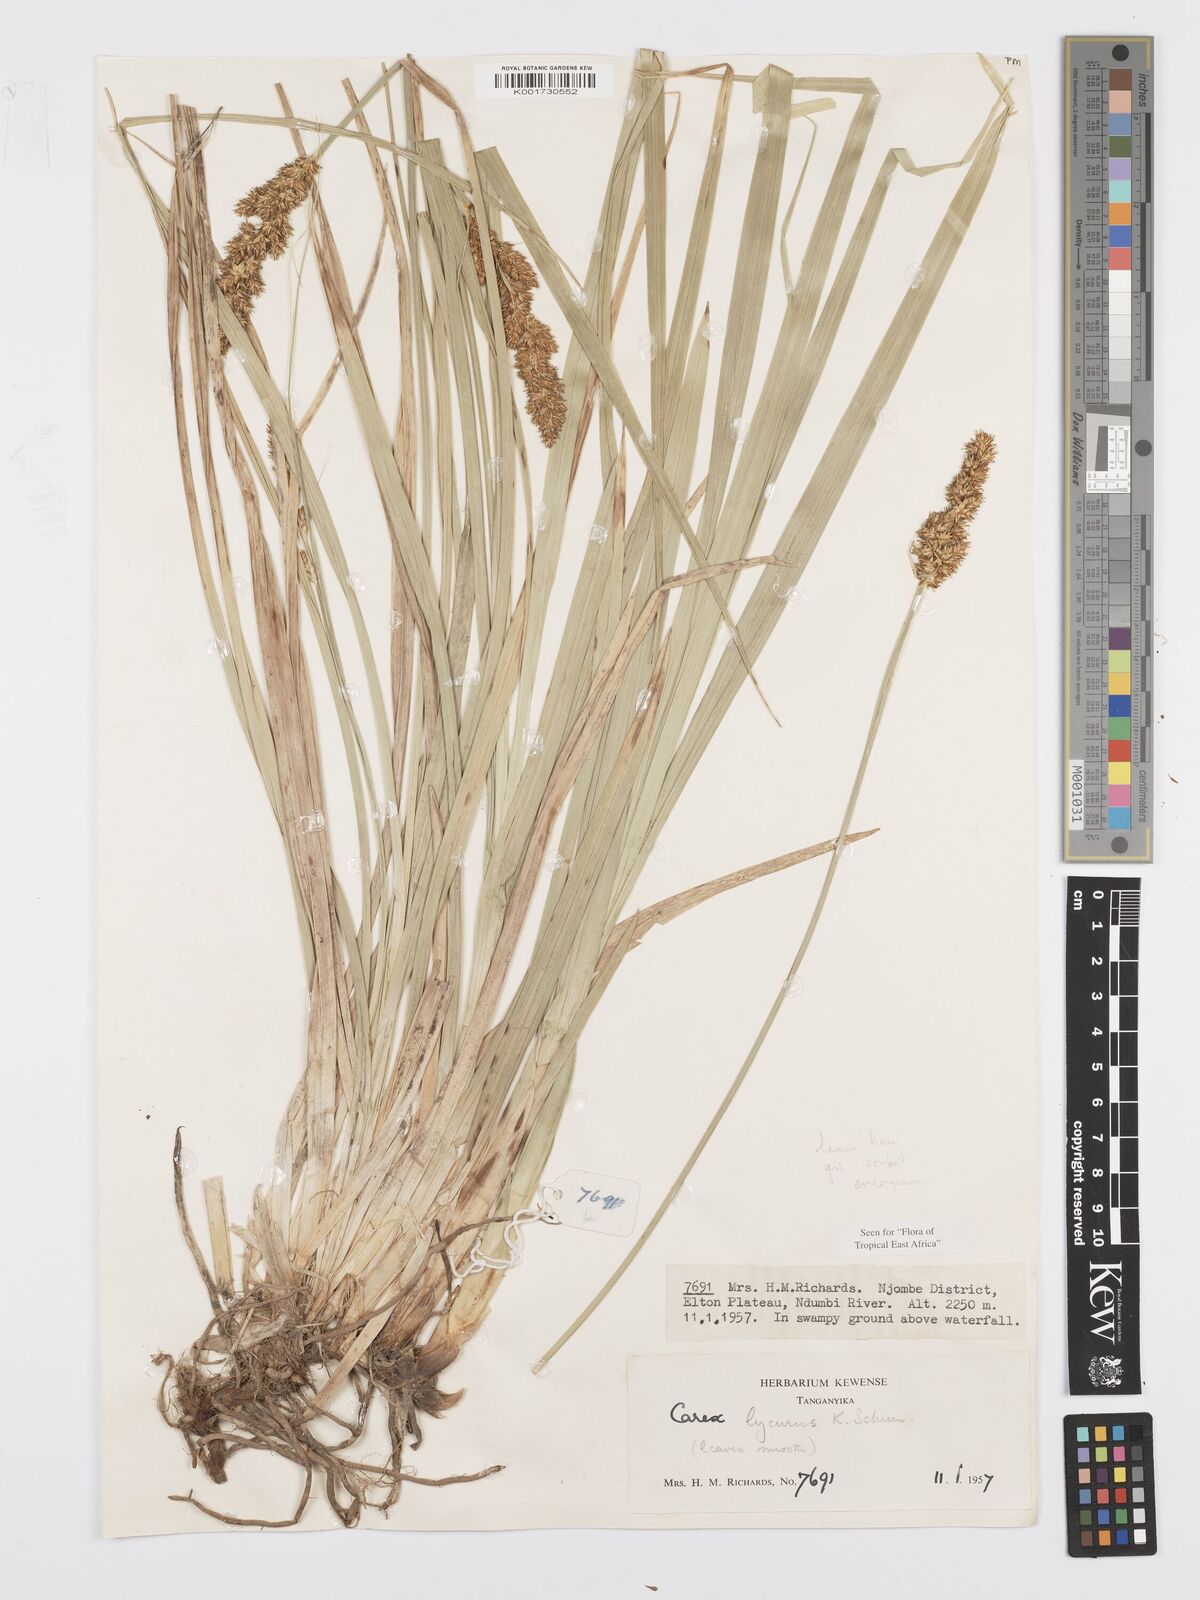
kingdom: Plantae
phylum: Tracheophyta
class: Liliopsida
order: Poales
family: Cyperaceae
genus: Carex
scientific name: Carex lycurus
